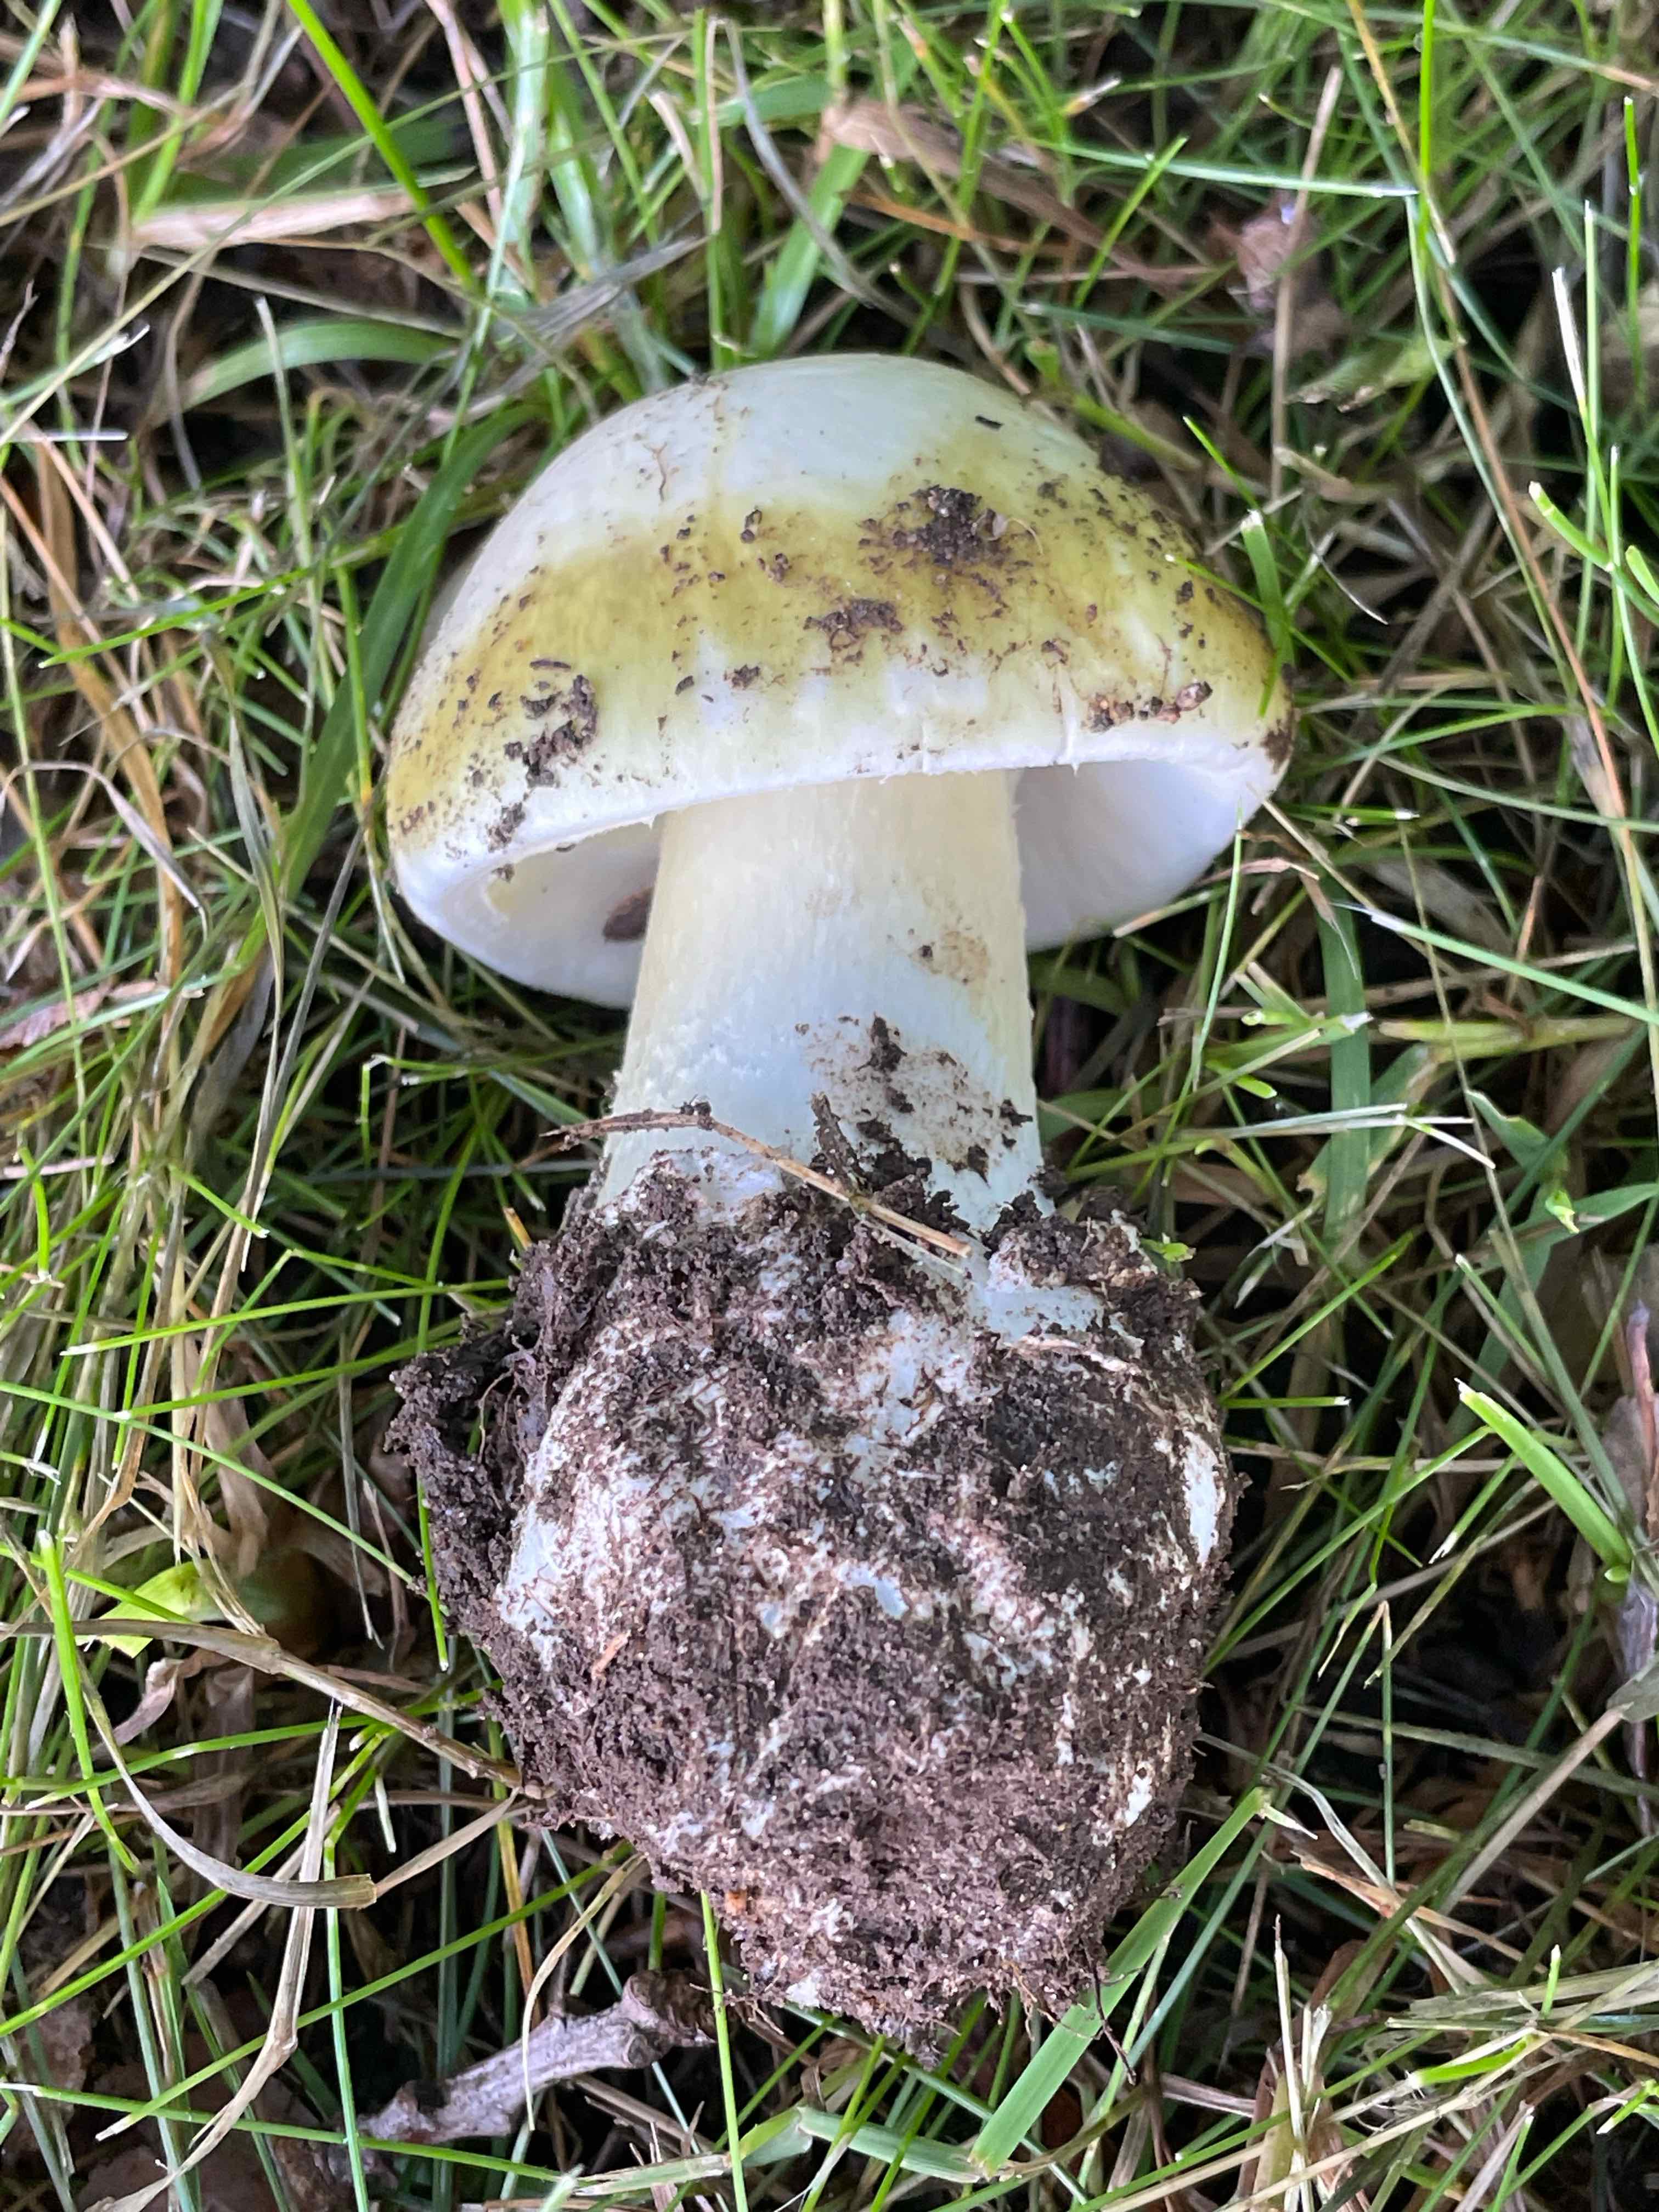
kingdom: Fungi
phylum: Basidiomycota
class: Agaricomycetes
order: Agaricales
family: Amanitaceae
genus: Amanita
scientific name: Amanita phalloides
